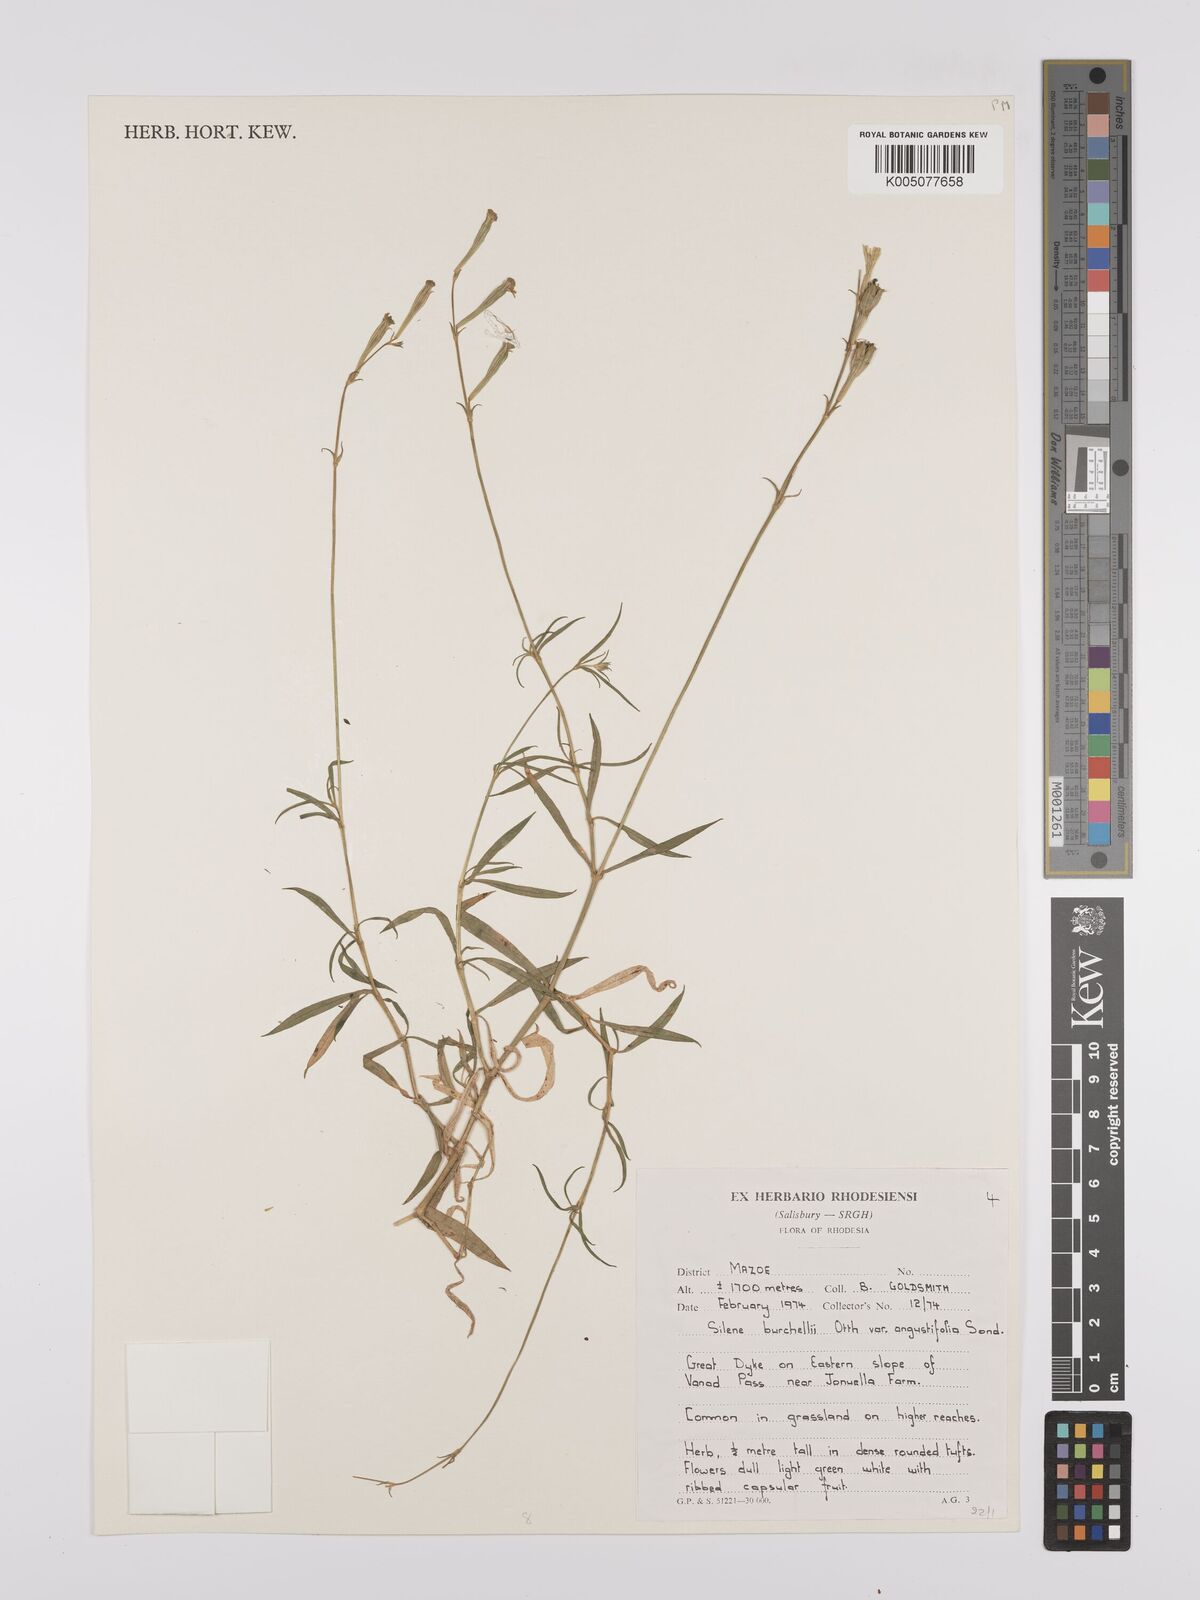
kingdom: Plantae
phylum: Tracheophyta
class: Magnoliopsida
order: Caryophyllales
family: Caryophyllaceae
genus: Silene
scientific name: Silene burchellii
